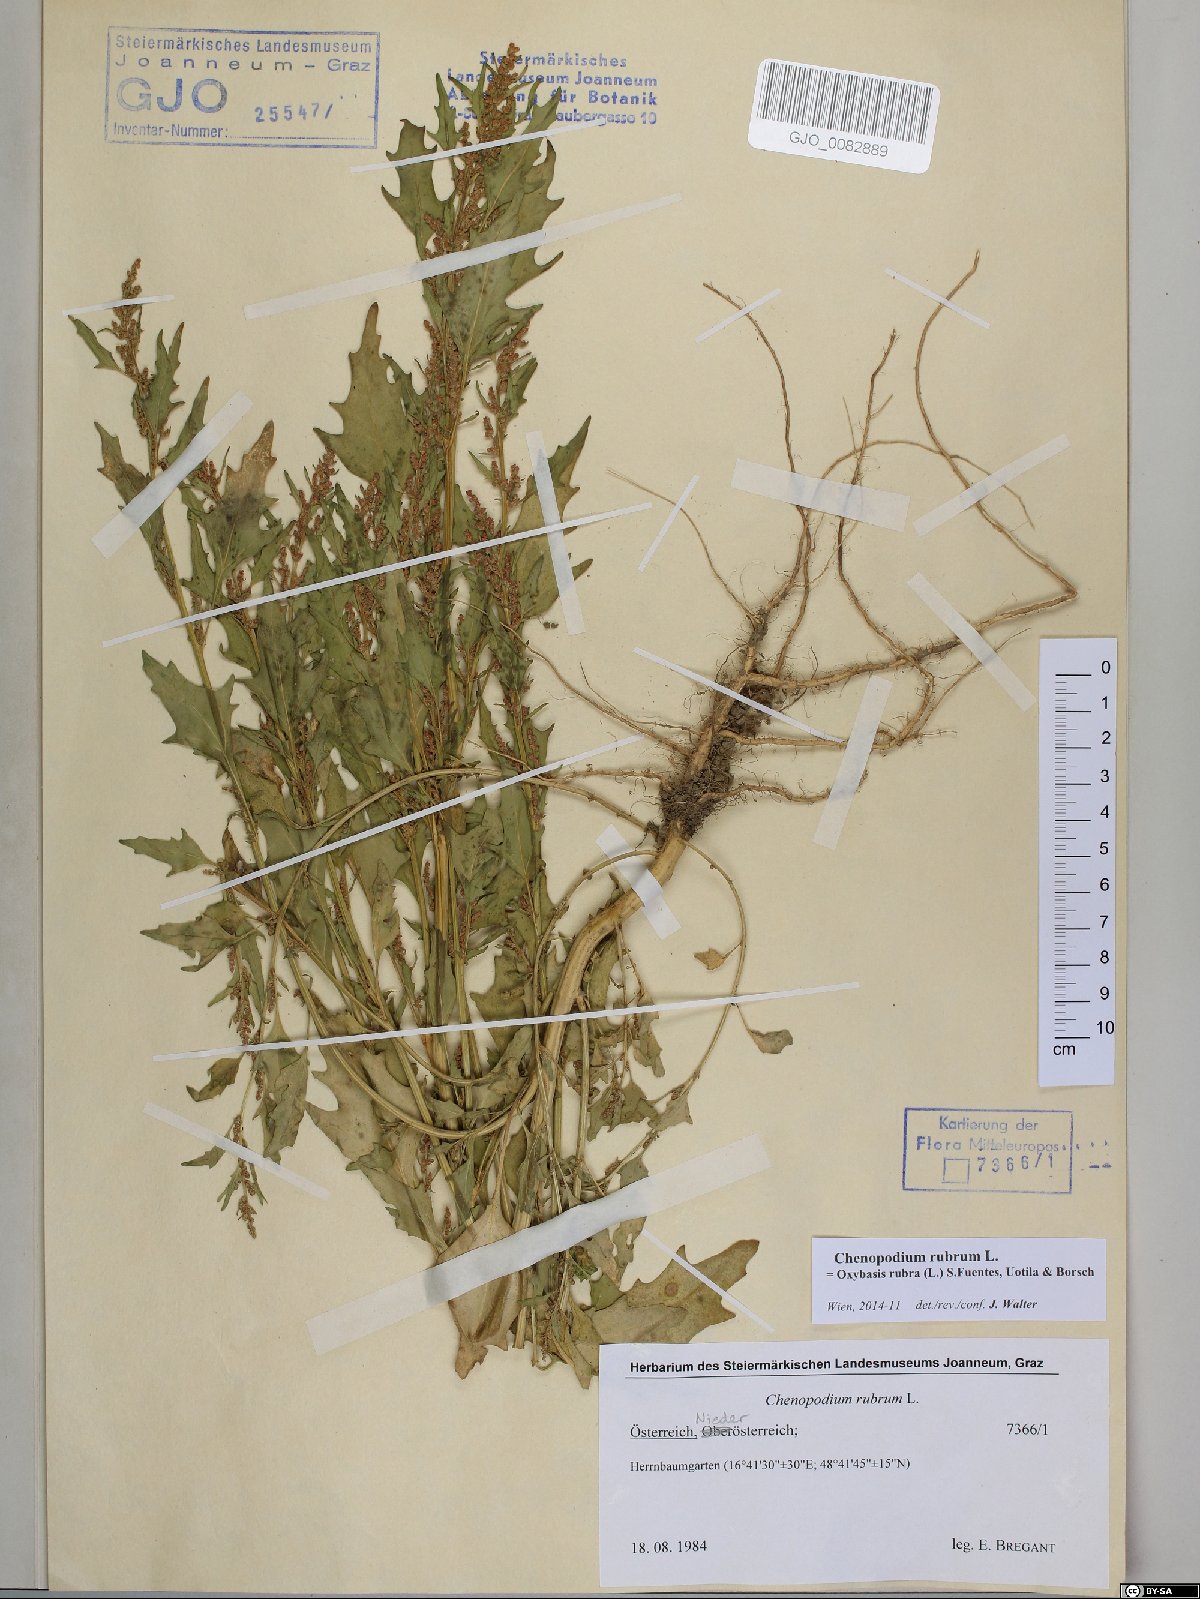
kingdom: Plantae
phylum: Tracheophyta
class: Magnoliopsida
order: Caryophyllales
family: Amaranthaceae
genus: Oxybasis
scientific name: Oxybasis rubra
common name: Red goosefoot
